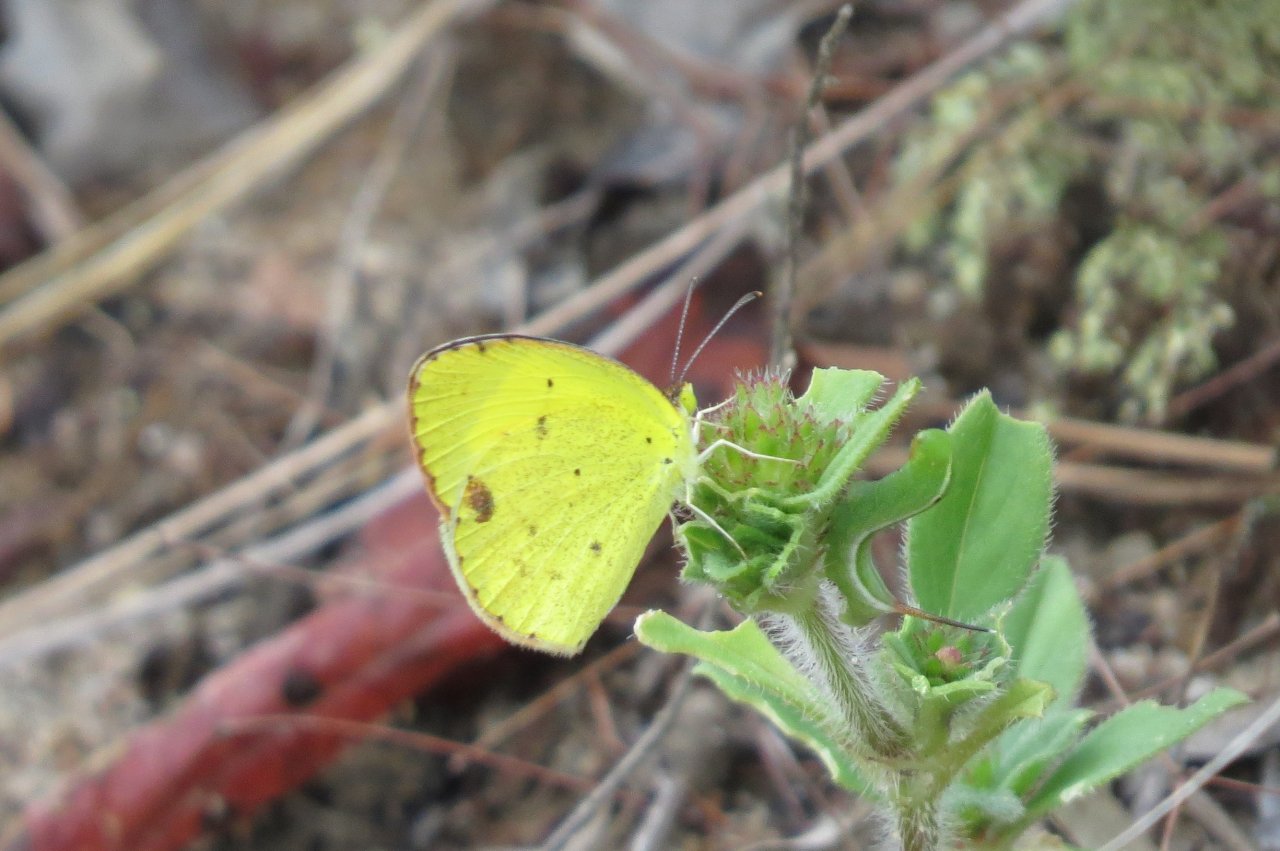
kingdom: Animalia
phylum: Arthropoda
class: Insecta
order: Lepidoptera
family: Pieridae
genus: Pyrisitia
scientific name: Pyrisitia lisa
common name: Little Yellow
